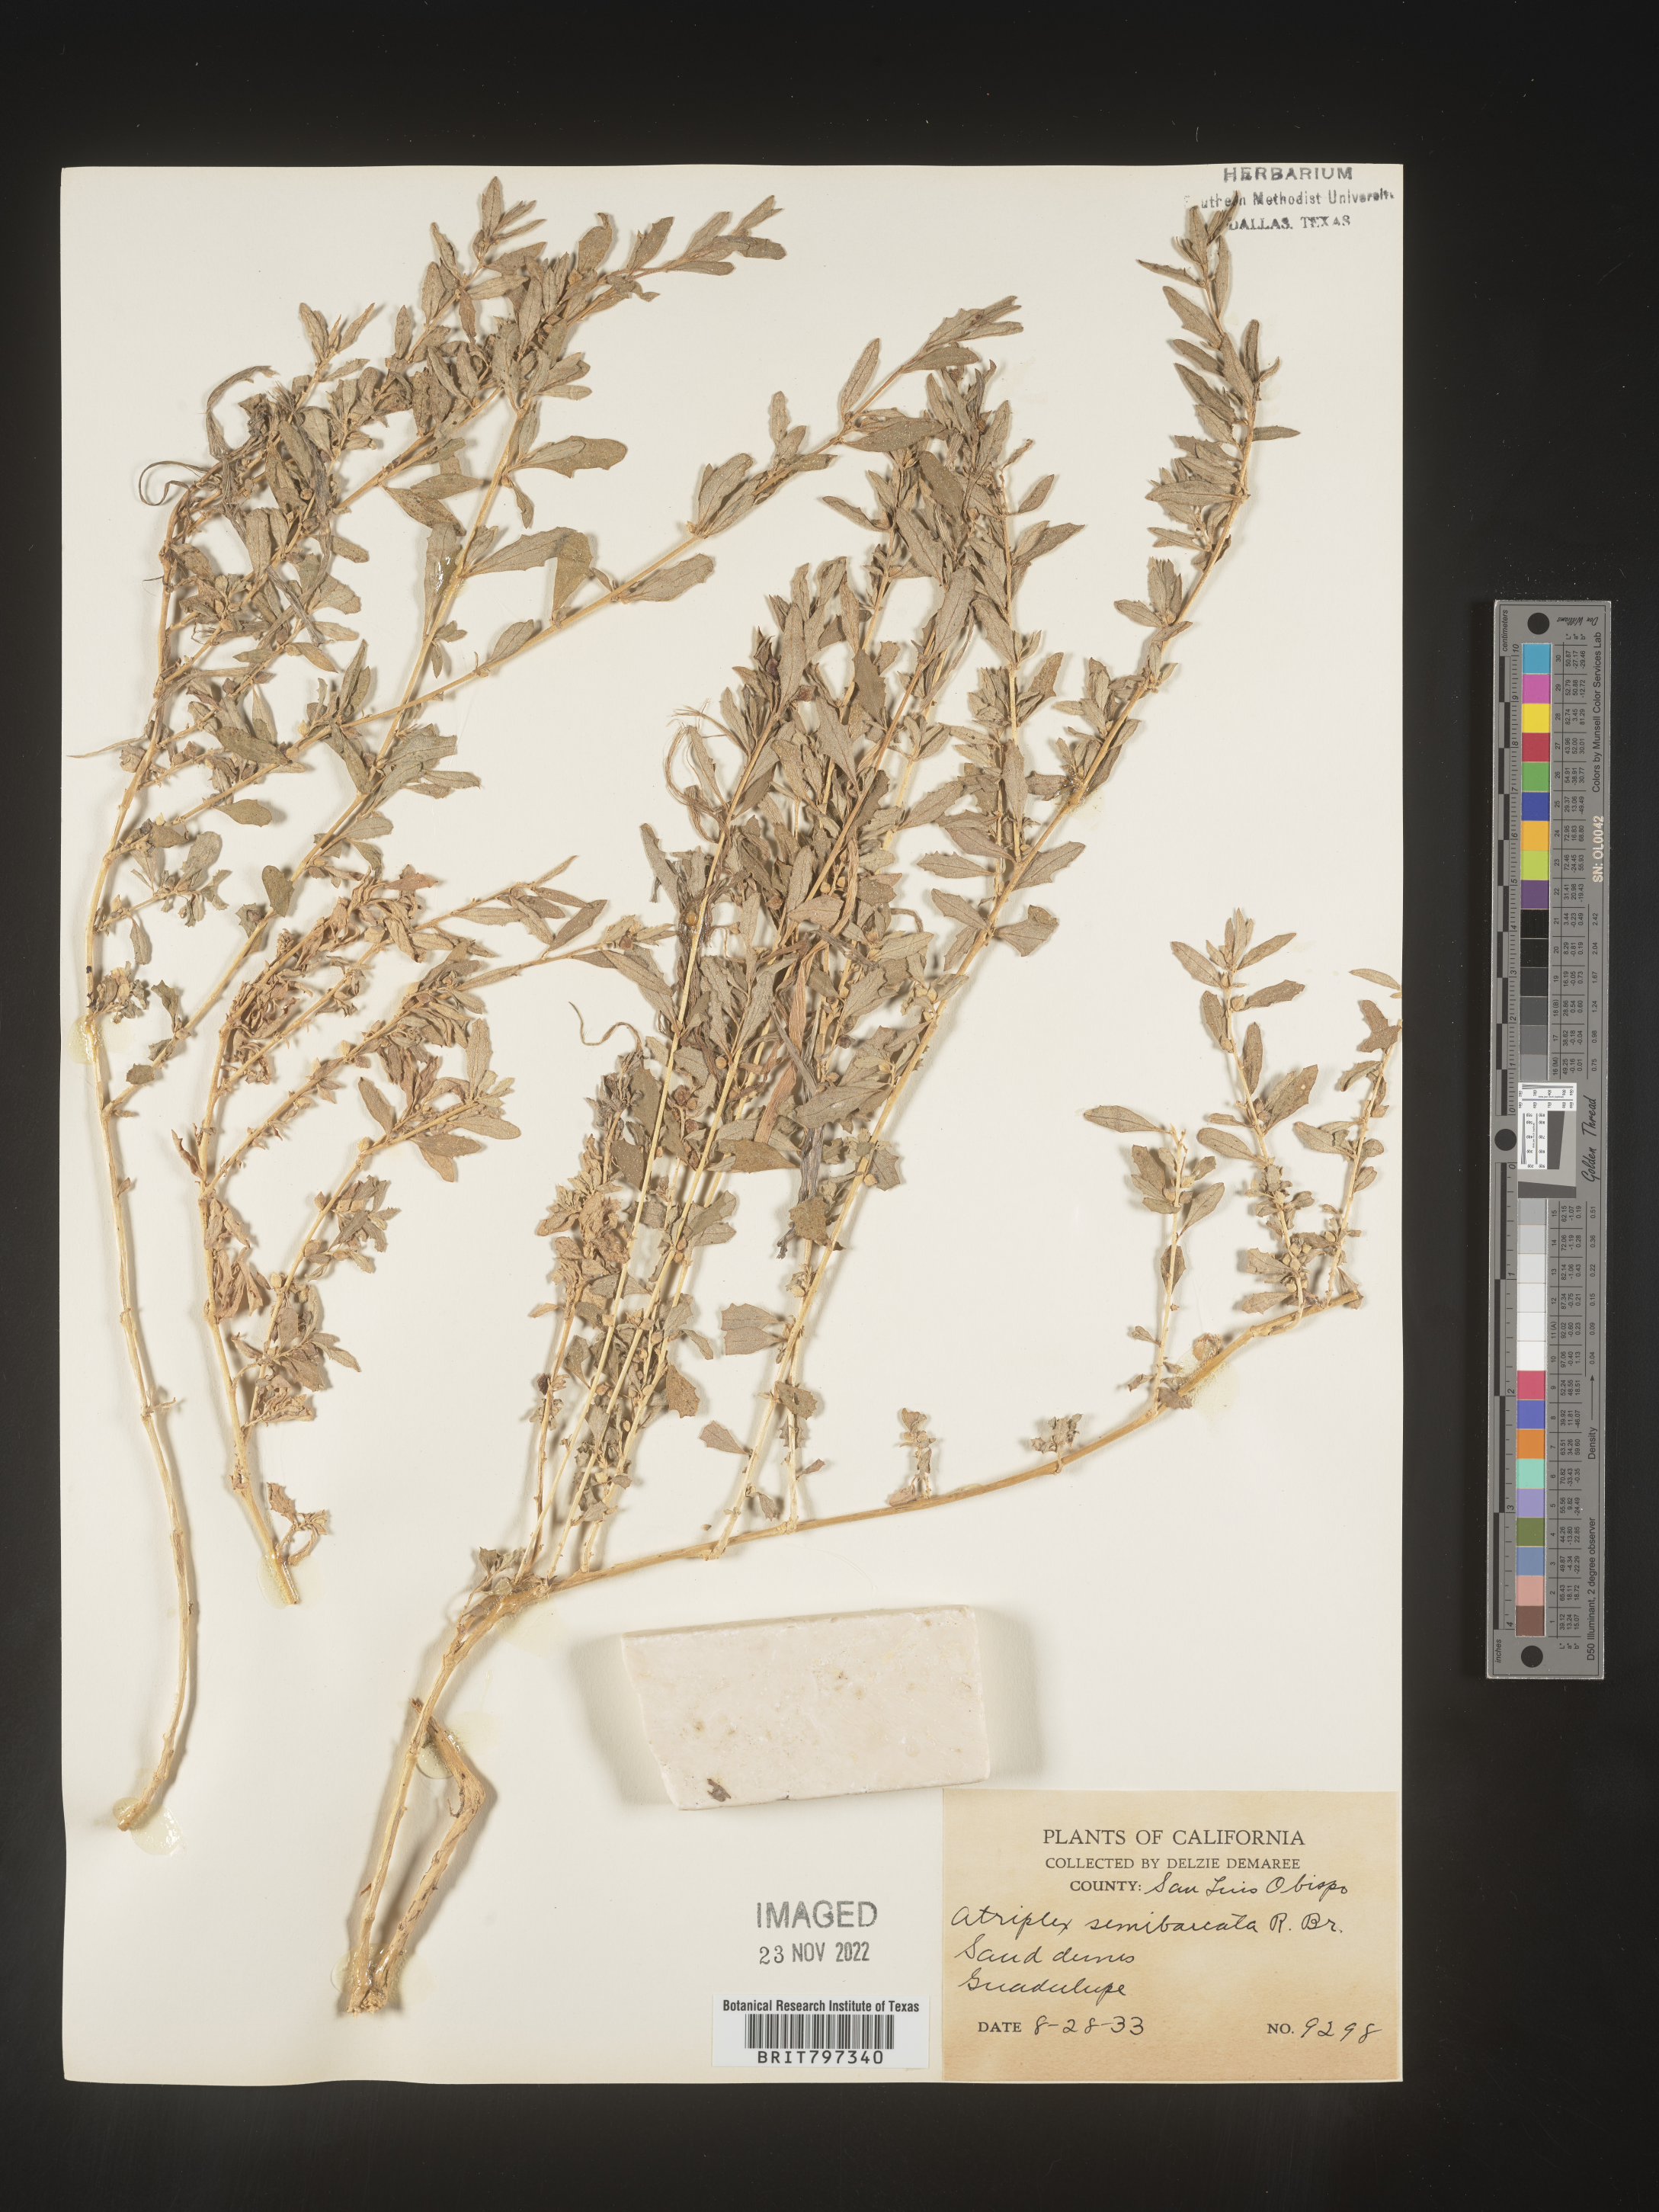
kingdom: Plantae
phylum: Tracheophyta
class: Magnoliopsida
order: Caryophyllales
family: Amaranthaceae
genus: Atriplex
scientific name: Atriplex
